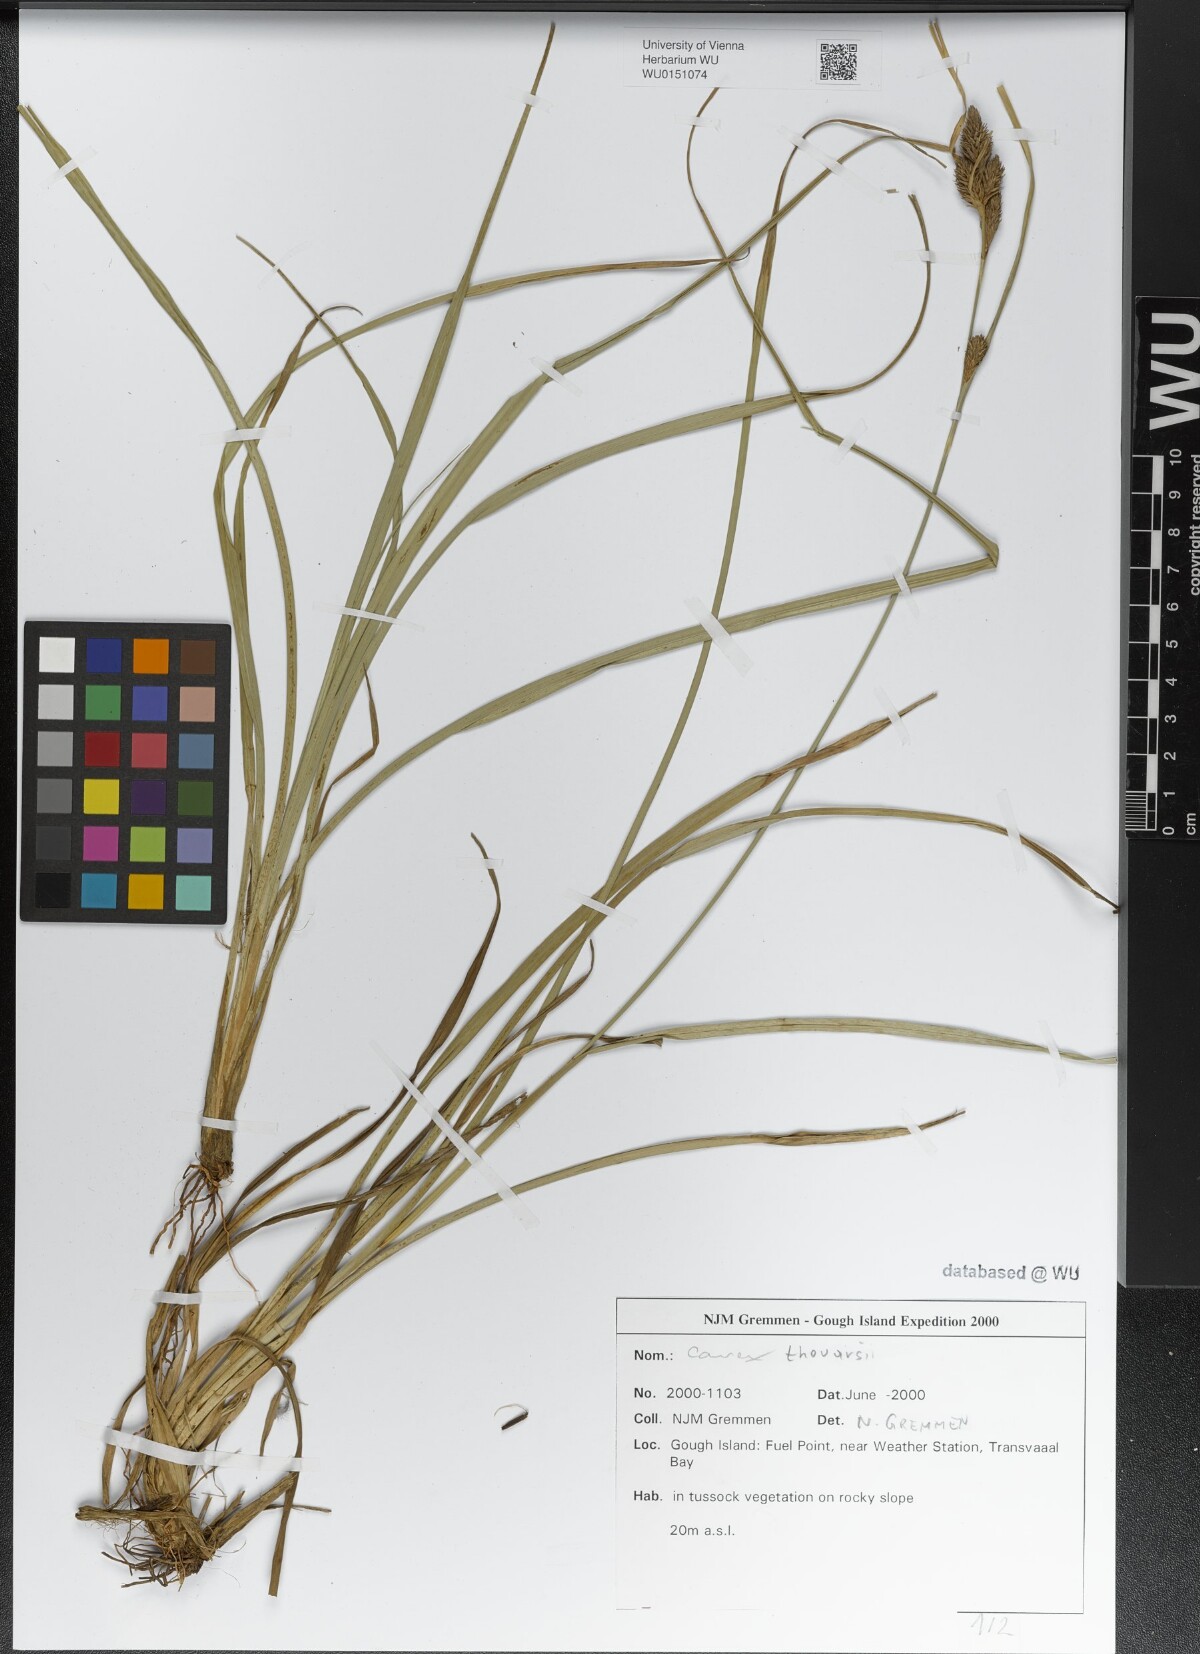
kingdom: Plantae
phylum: Tracheophyta
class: Liliopsida
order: Poales
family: Cyperaceae
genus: Carex
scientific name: Carex thouarsii
